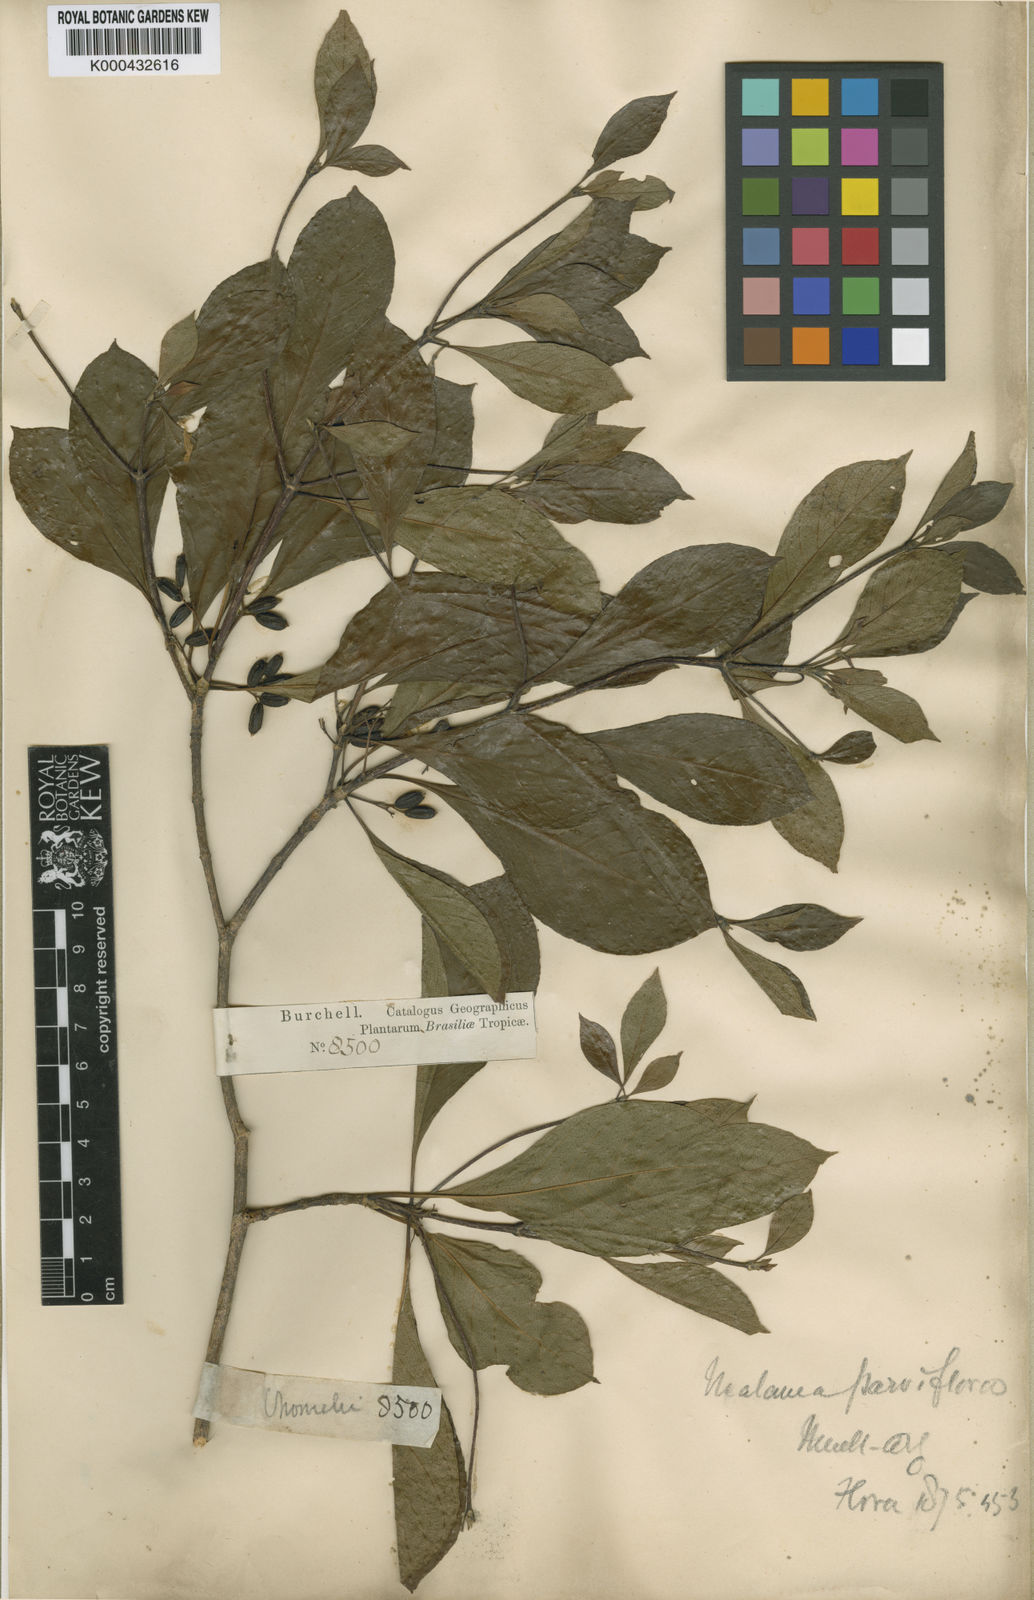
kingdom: Plantae
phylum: Tracheophyta
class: Magnoliopsida
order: Gentianales
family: Rubiaceae
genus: Chomelia
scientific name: Chomelia
